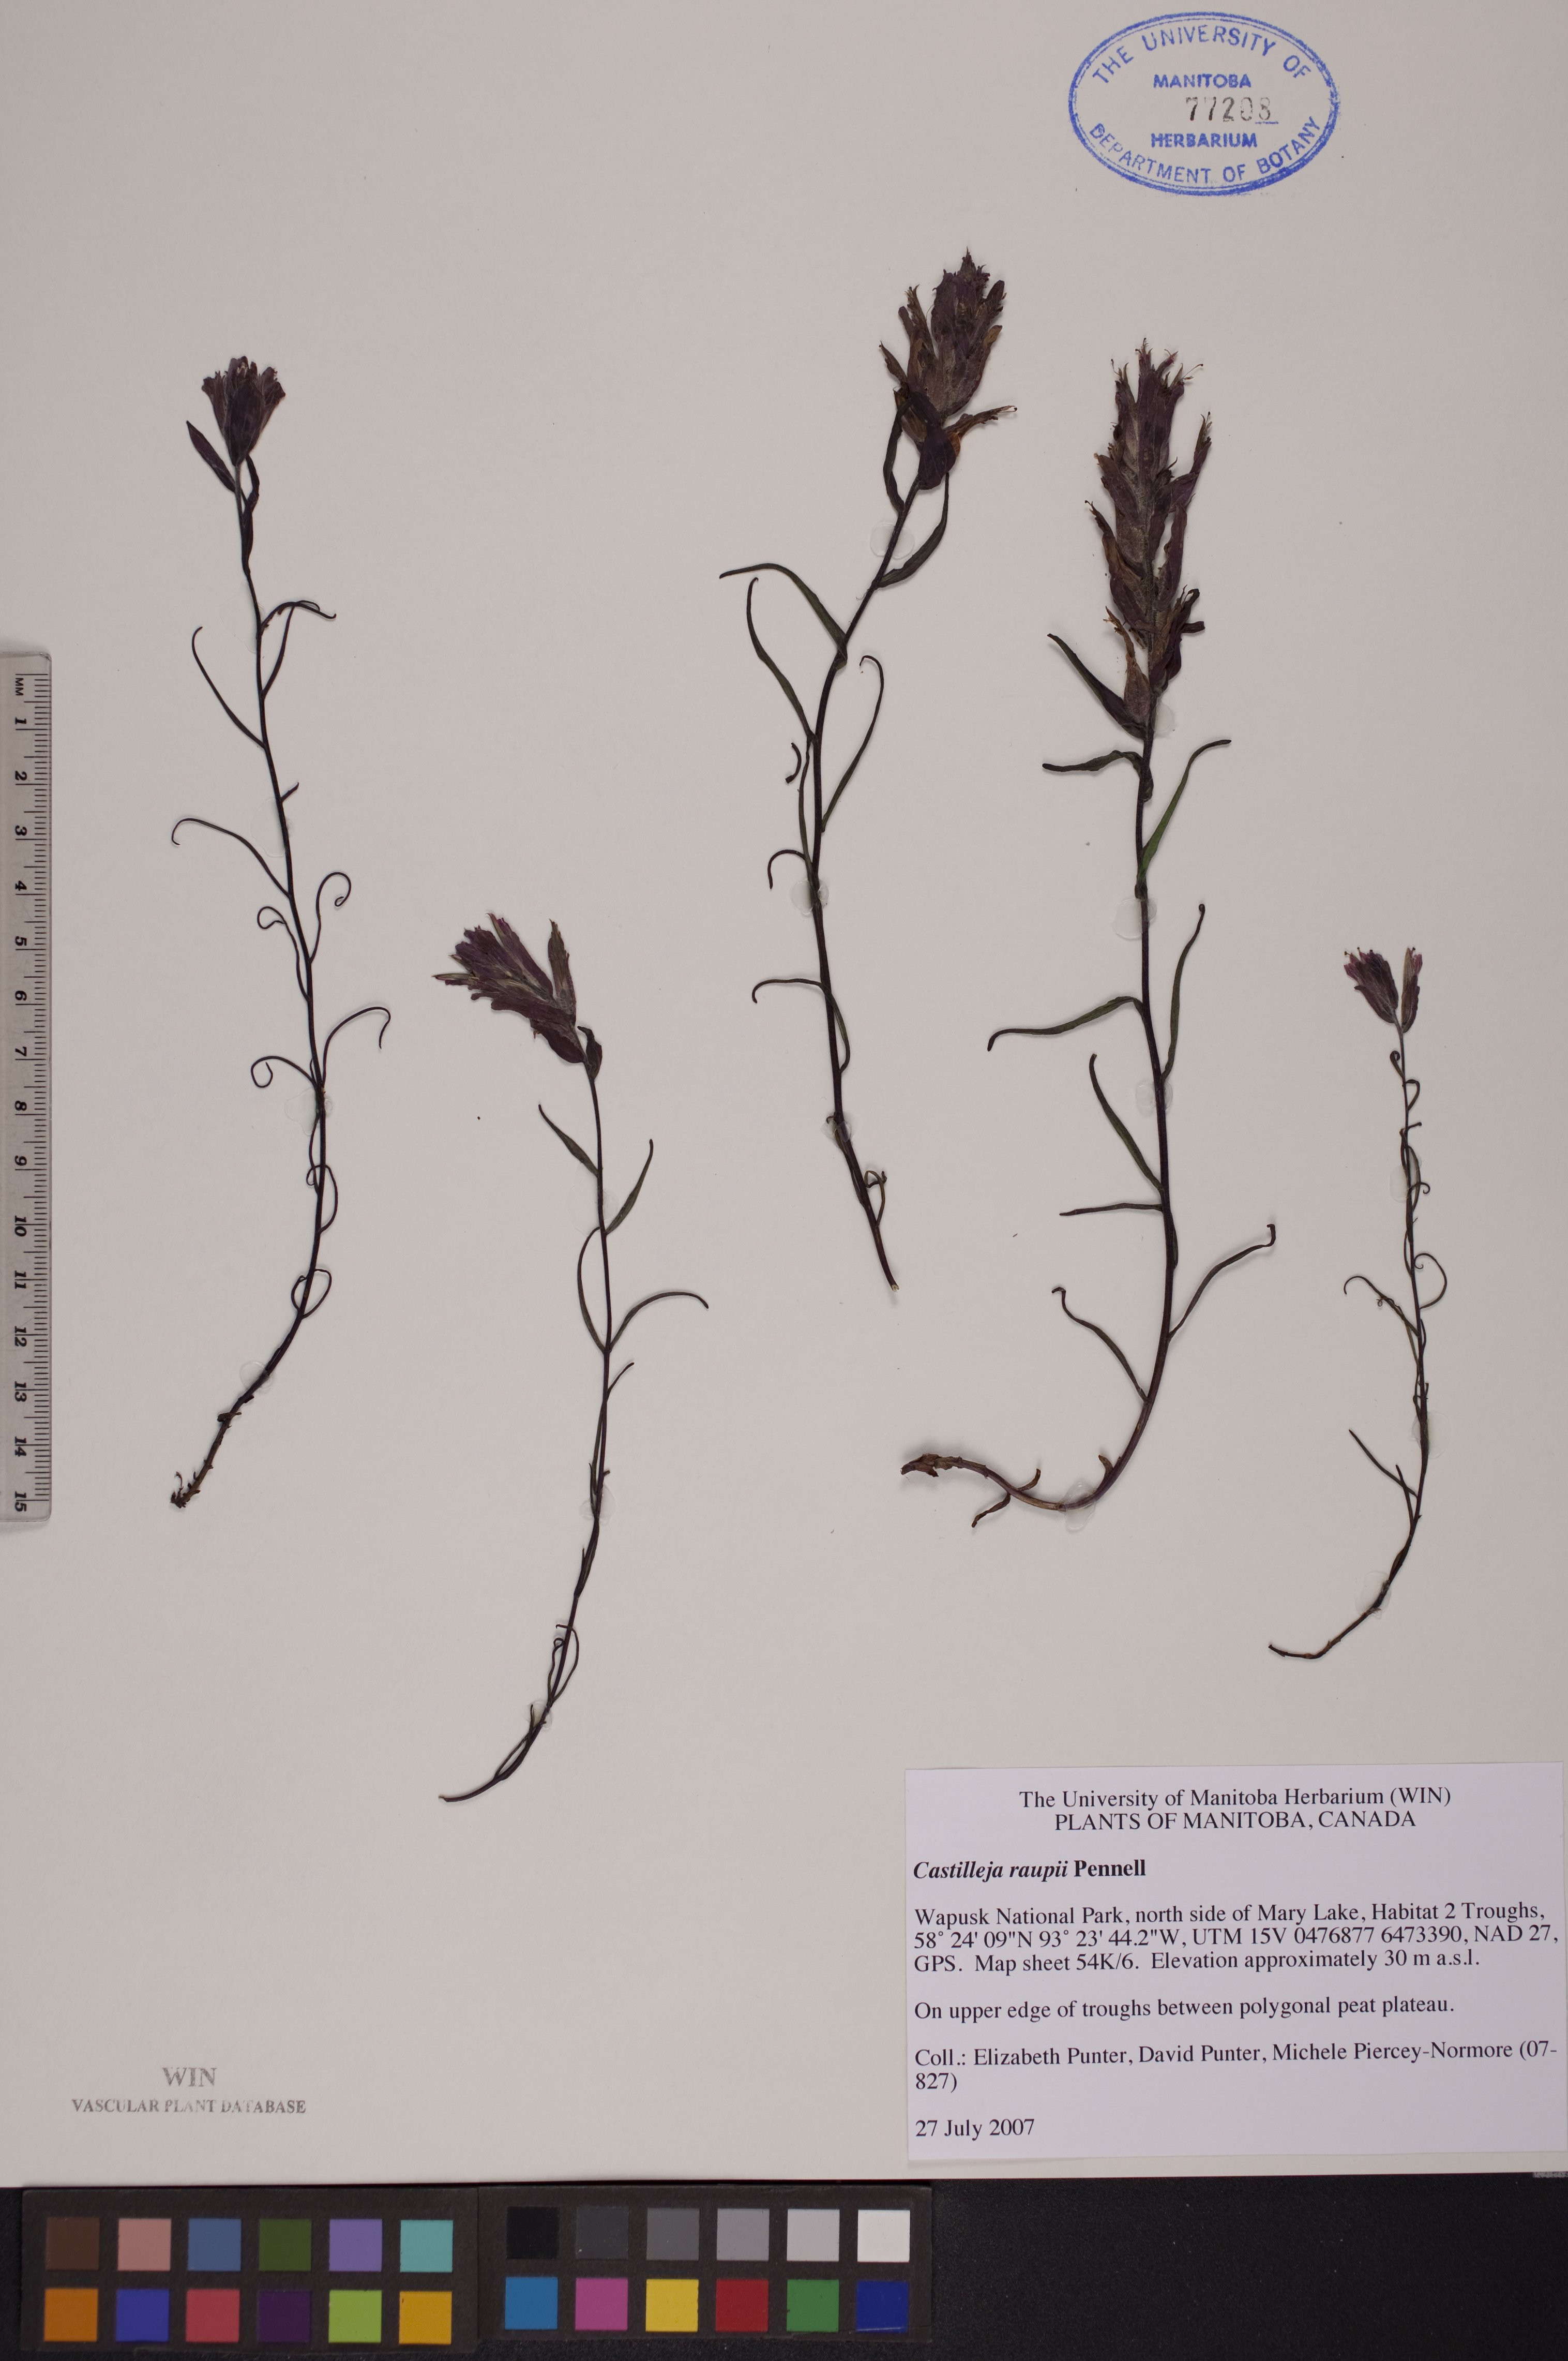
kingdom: Plantae
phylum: Tracheophyta
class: Magnoliopsida
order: Lamiales
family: Orobanchaceae
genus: Castilleja
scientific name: Castilleja raupii
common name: Raup's paintbrush
